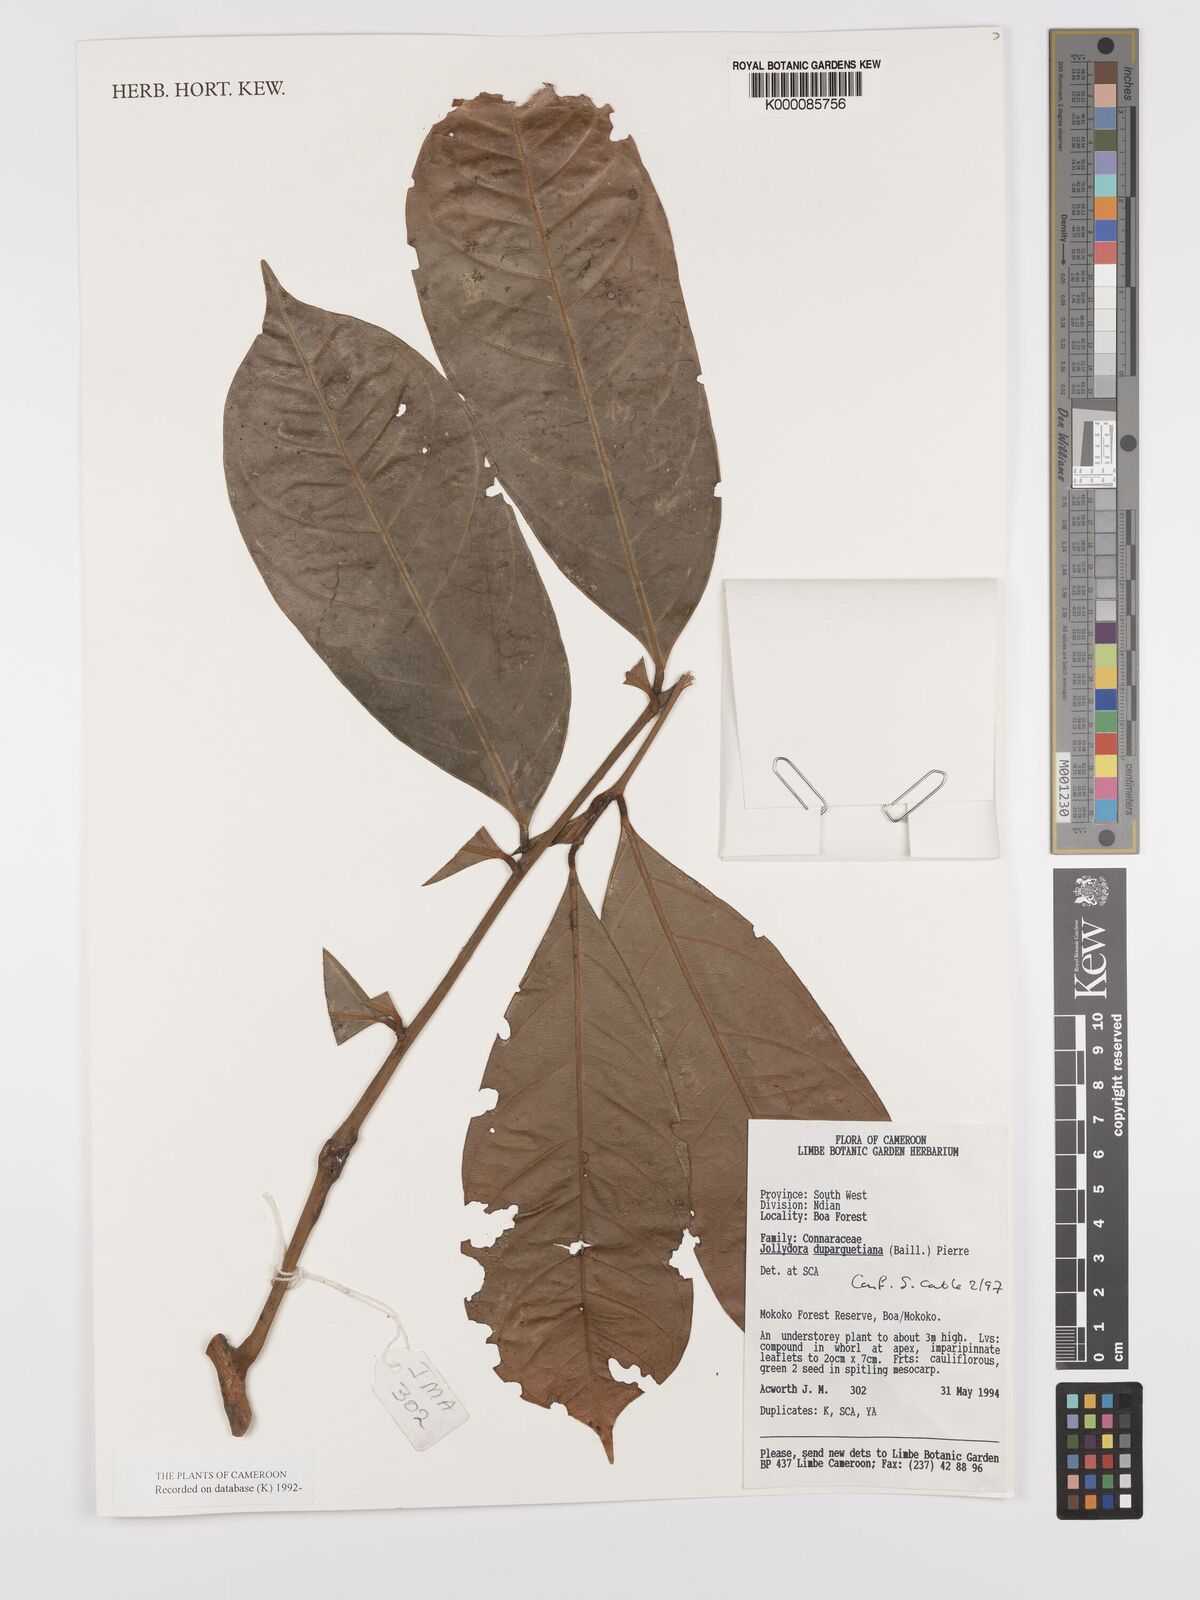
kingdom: Plantae
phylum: Tracheophyta
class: Magnoliopsida
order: Oxalidales
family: Connaraceae
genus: Jollydora
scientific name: Jollydora duparquetiana
